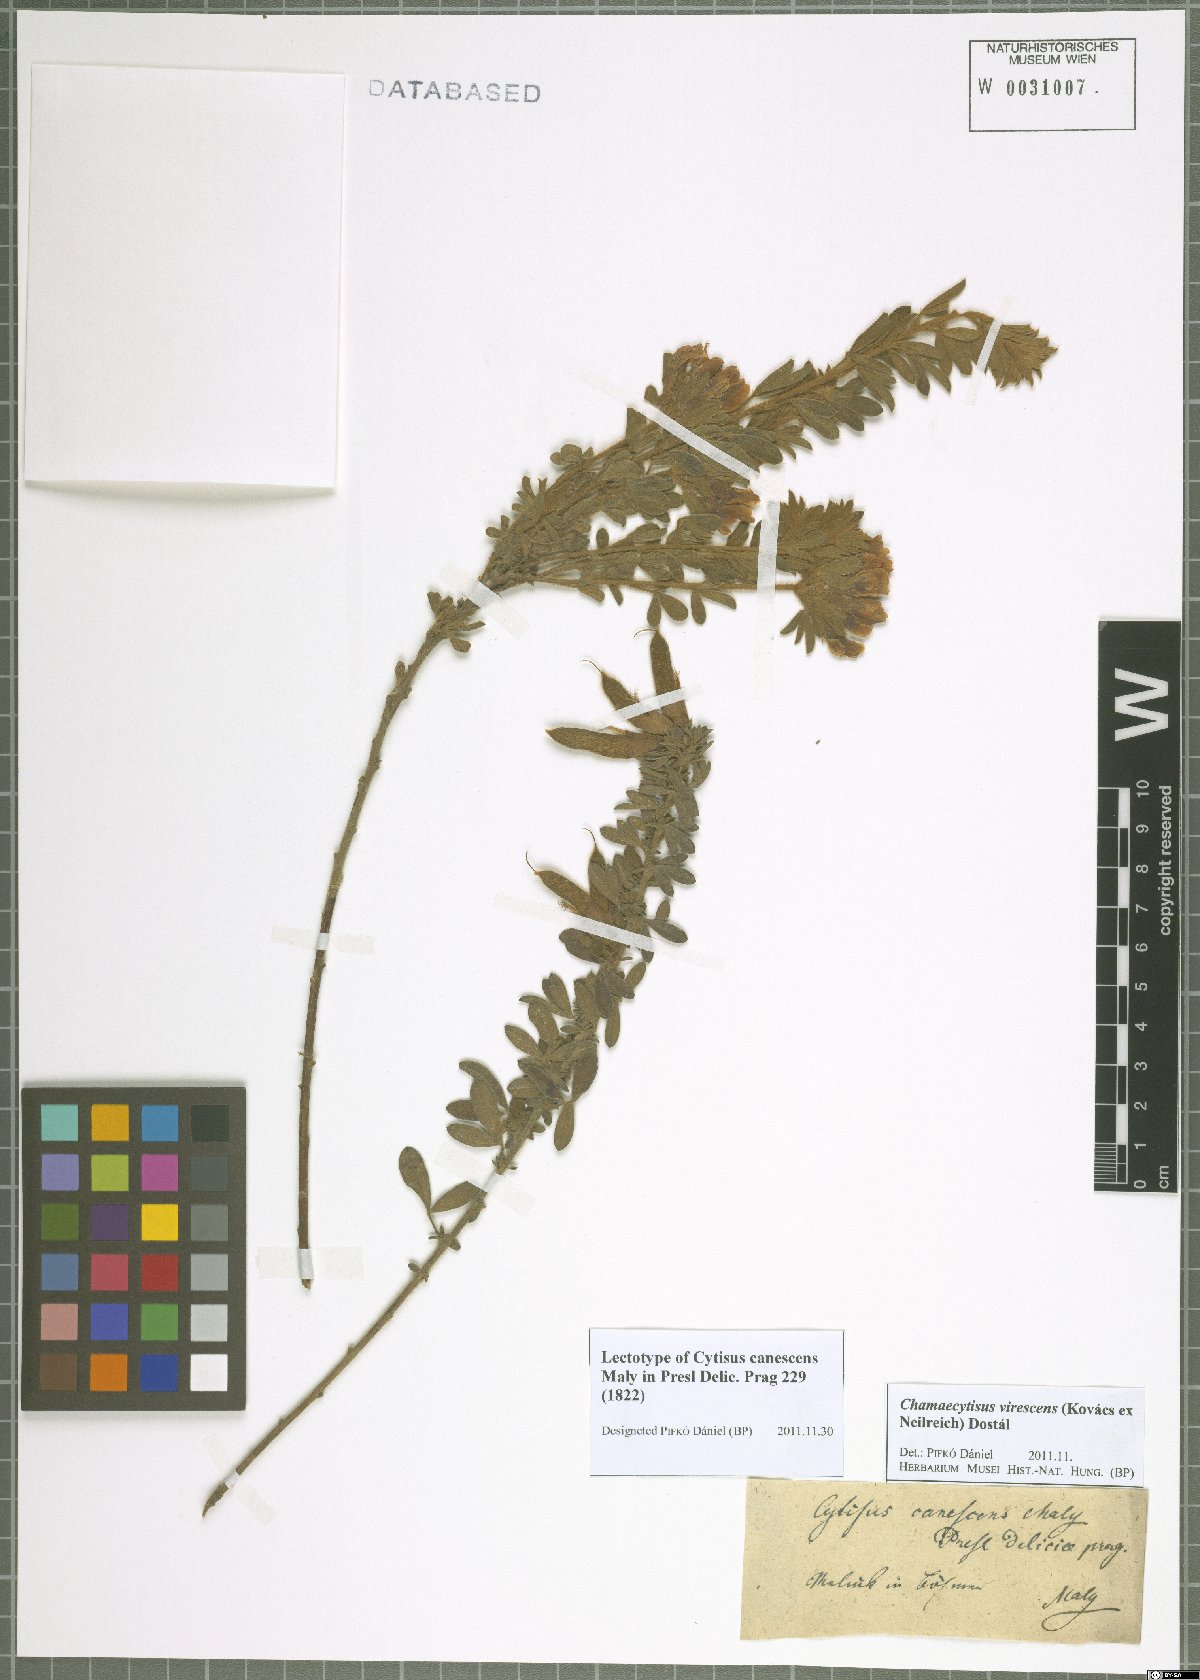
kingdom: Plantae
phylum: Tracheophyta
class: Magnoliopsida
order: Fabales
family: Fabaceae
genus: Chamaecytisus
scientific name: Chamaecytisus virescens
